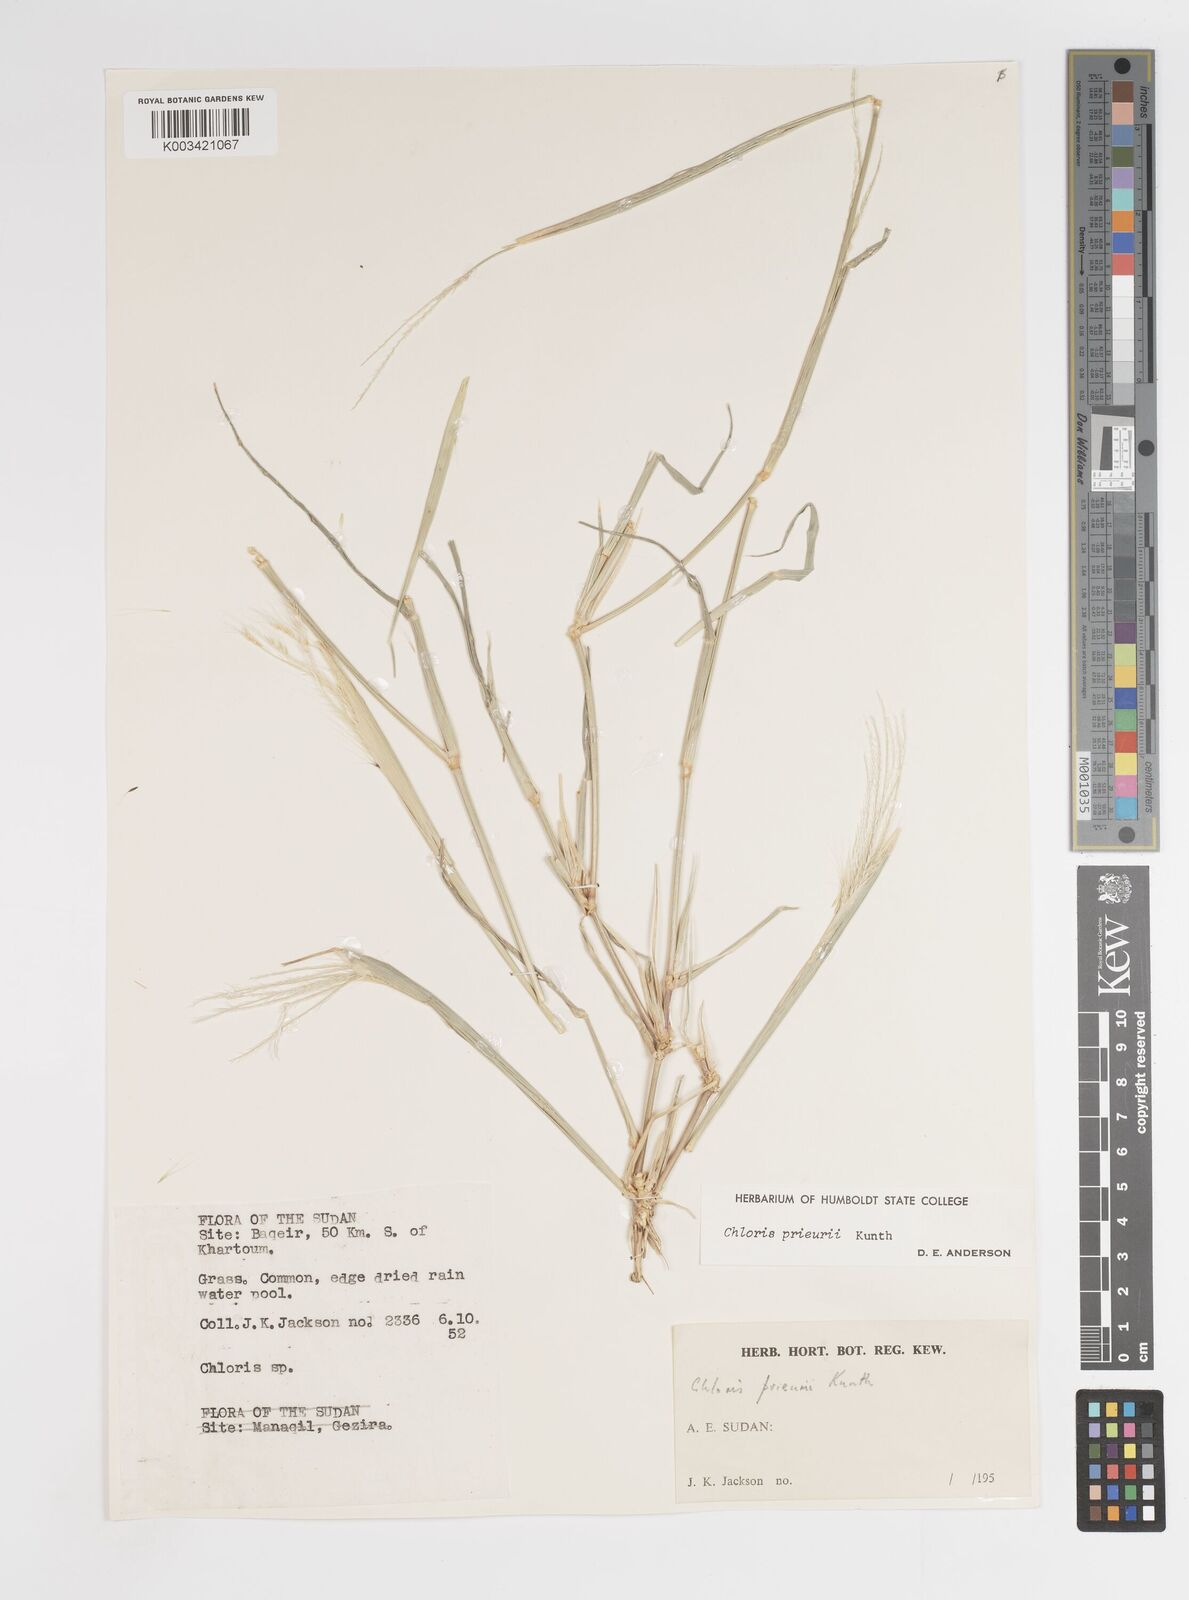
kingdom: Plantae
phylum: Tracheophyta
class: Liliopsida
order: Poales
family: Poaceae
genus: Enteropogon
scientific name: Enteropogon prieurii
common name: Prieur's umbrellagrass
